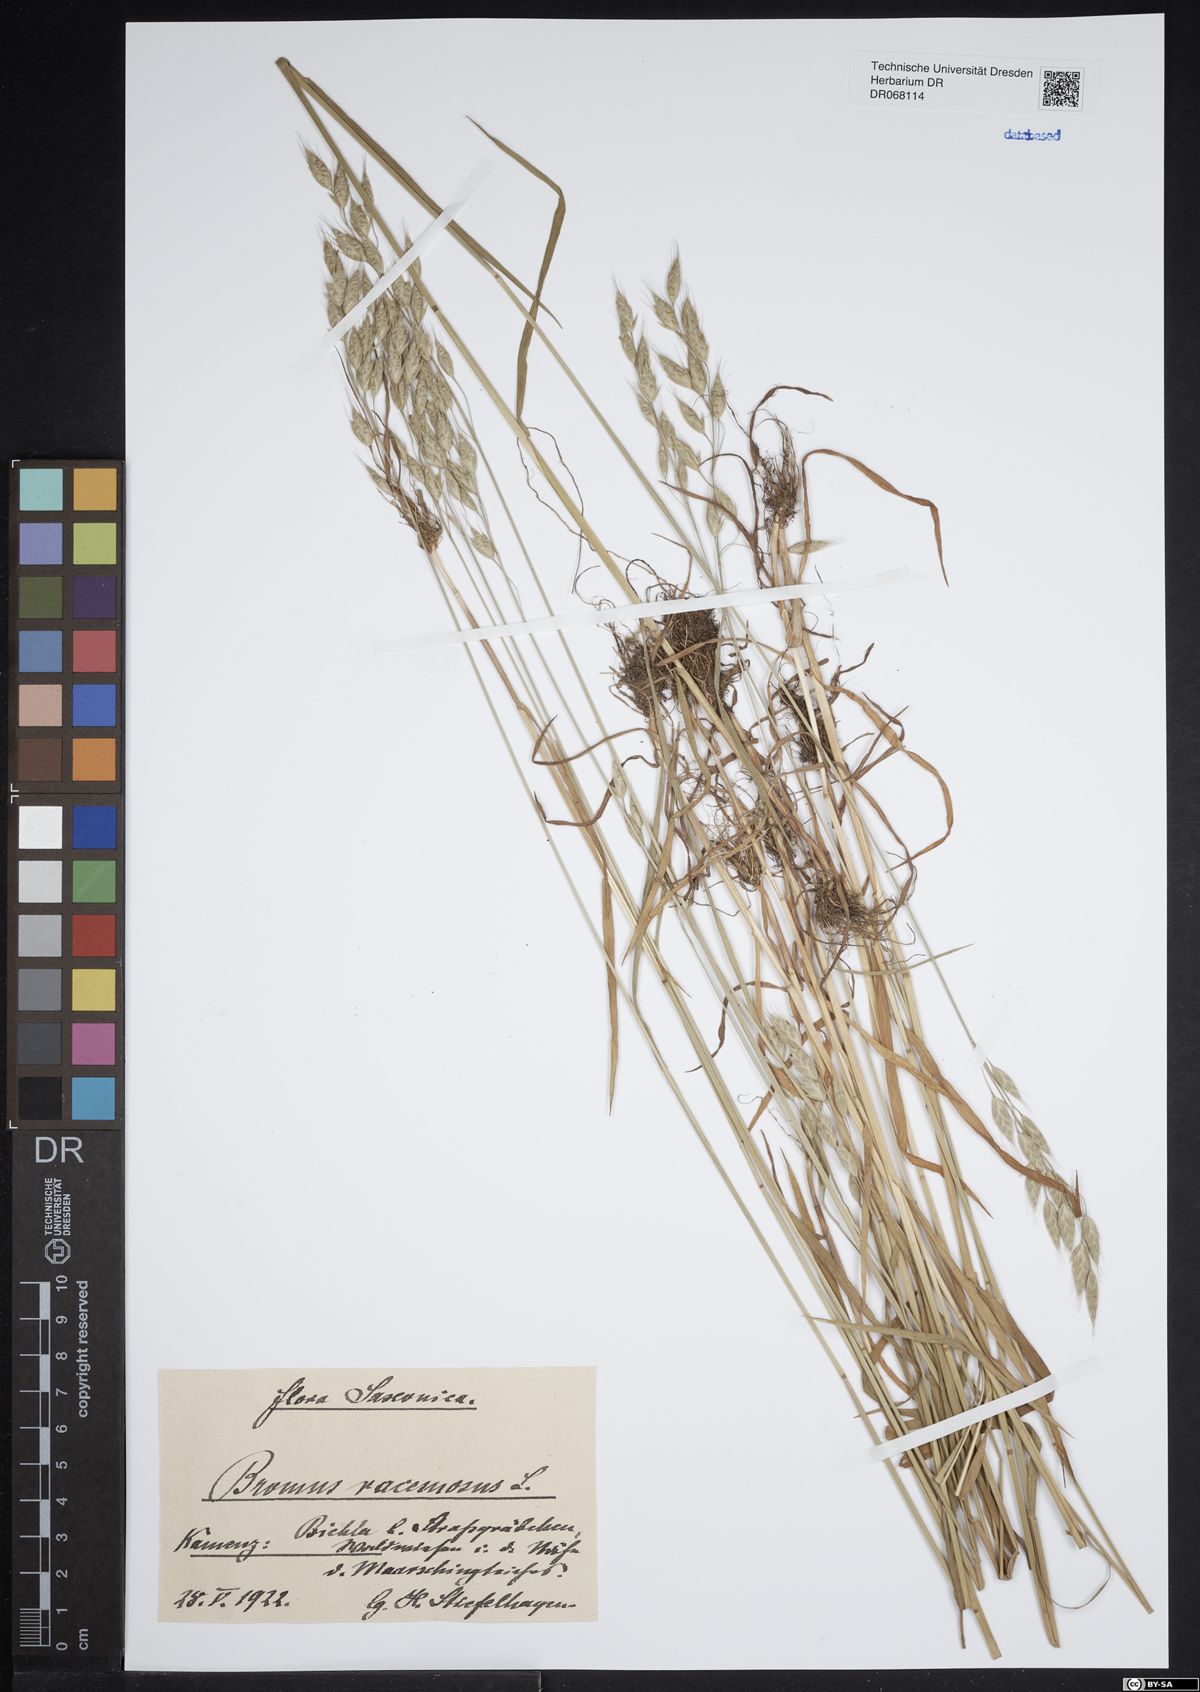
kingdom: Plantae
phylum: Tracheophyta
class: Liliopsida
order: Poales
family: Poaceae
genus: Bromus
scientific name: Bromus racemosus
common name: Bald brome
